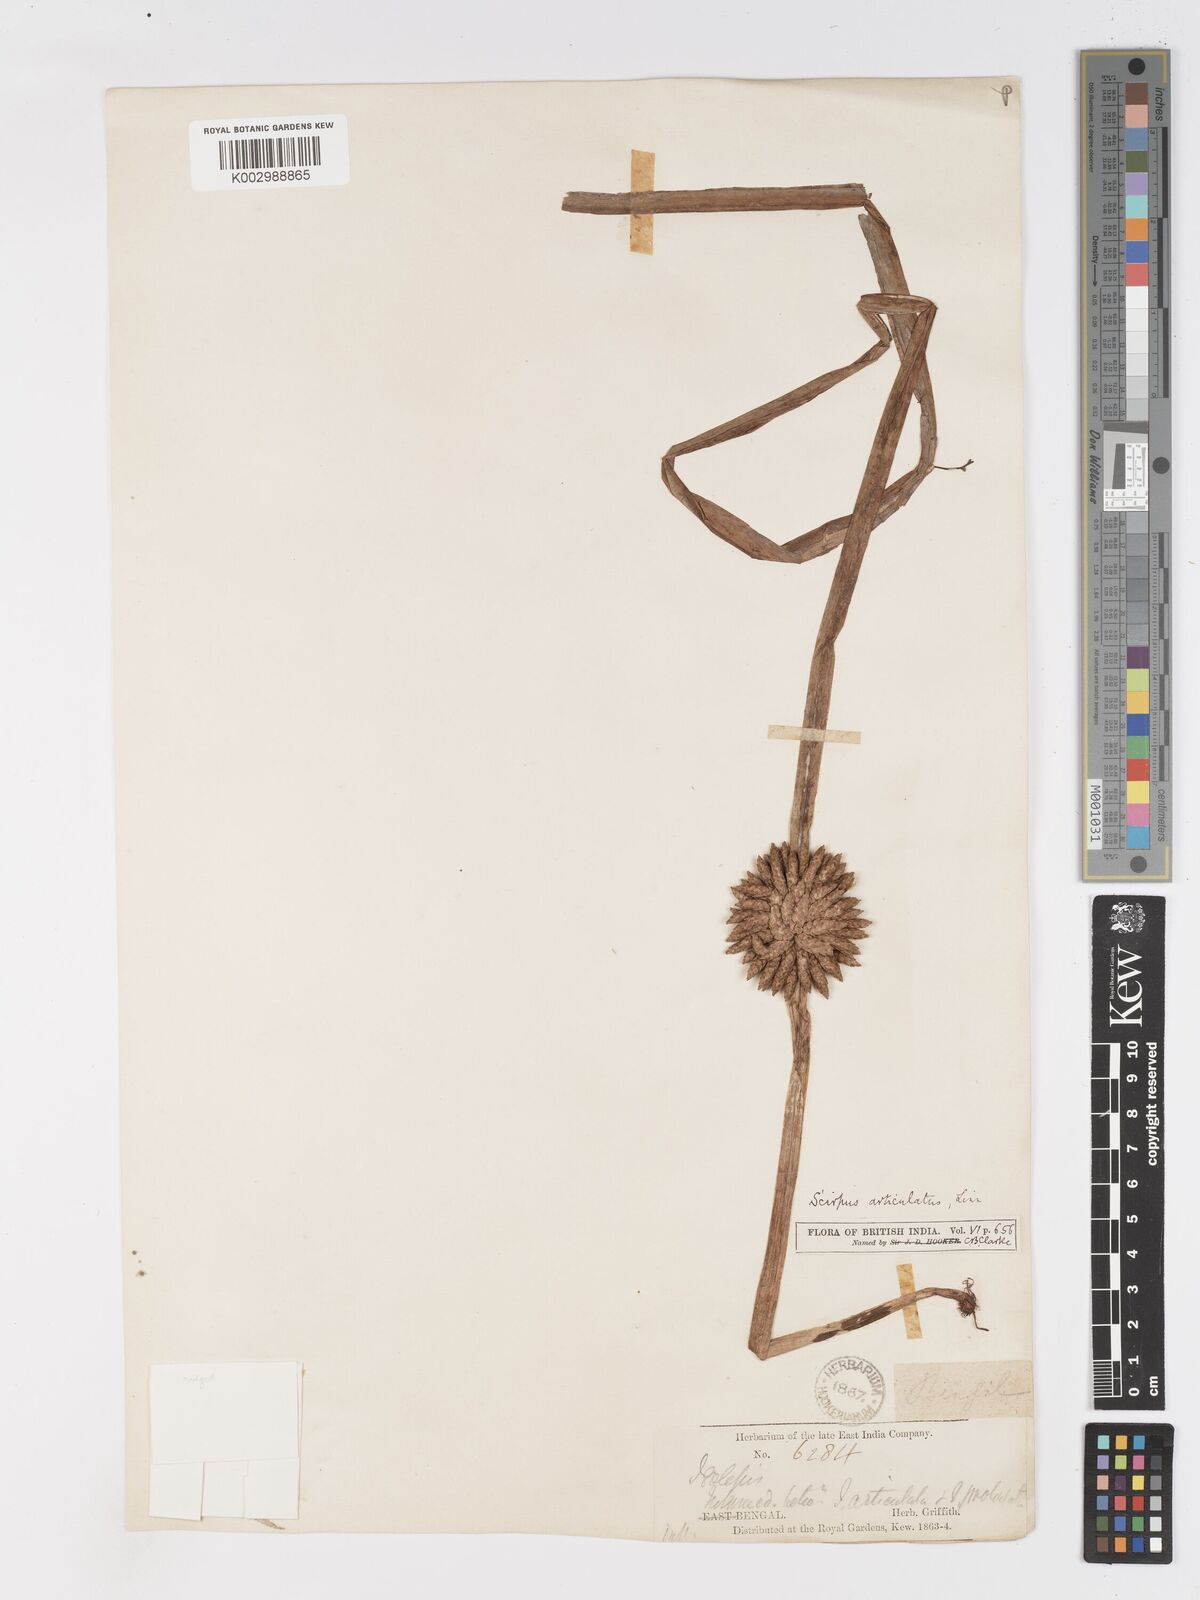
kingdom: Plantae
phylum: Tracheophyta
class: Liliopsida
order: Poales
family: Cyperaceae
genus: Schoenoplectiella
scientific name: Schoenoplectiella praelongata
